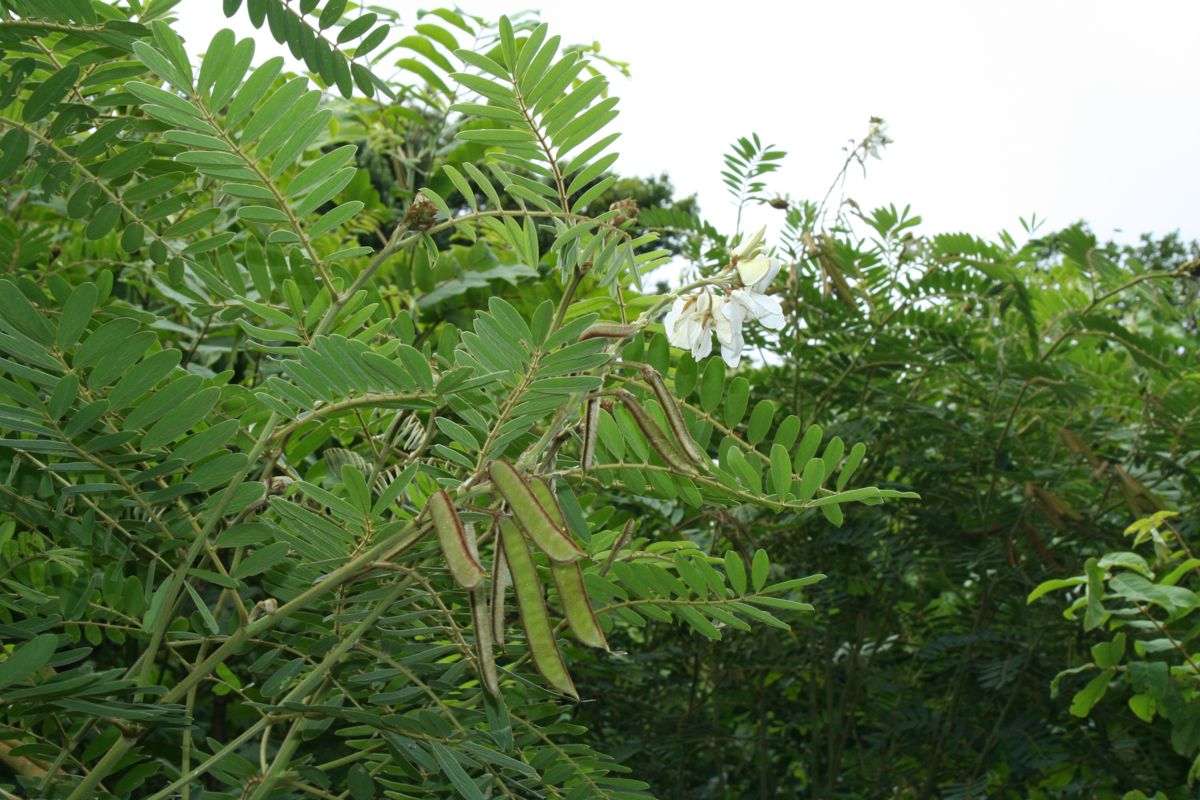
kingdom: Plantae
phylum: Tracheophyta
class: Magnoliopsida
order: Fabales
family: Fabaceae
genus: Tephrosia
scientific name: Tephrosia vogelii
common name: Vogel tephrosia
